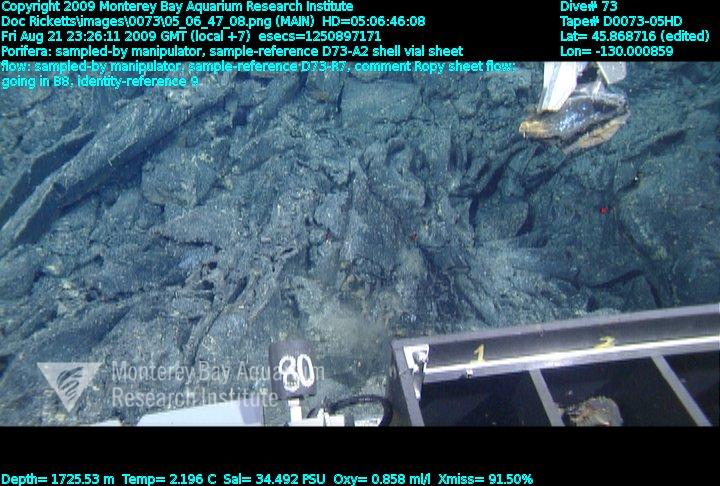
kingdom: Animalia
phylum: Porifera
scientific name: Porifera
